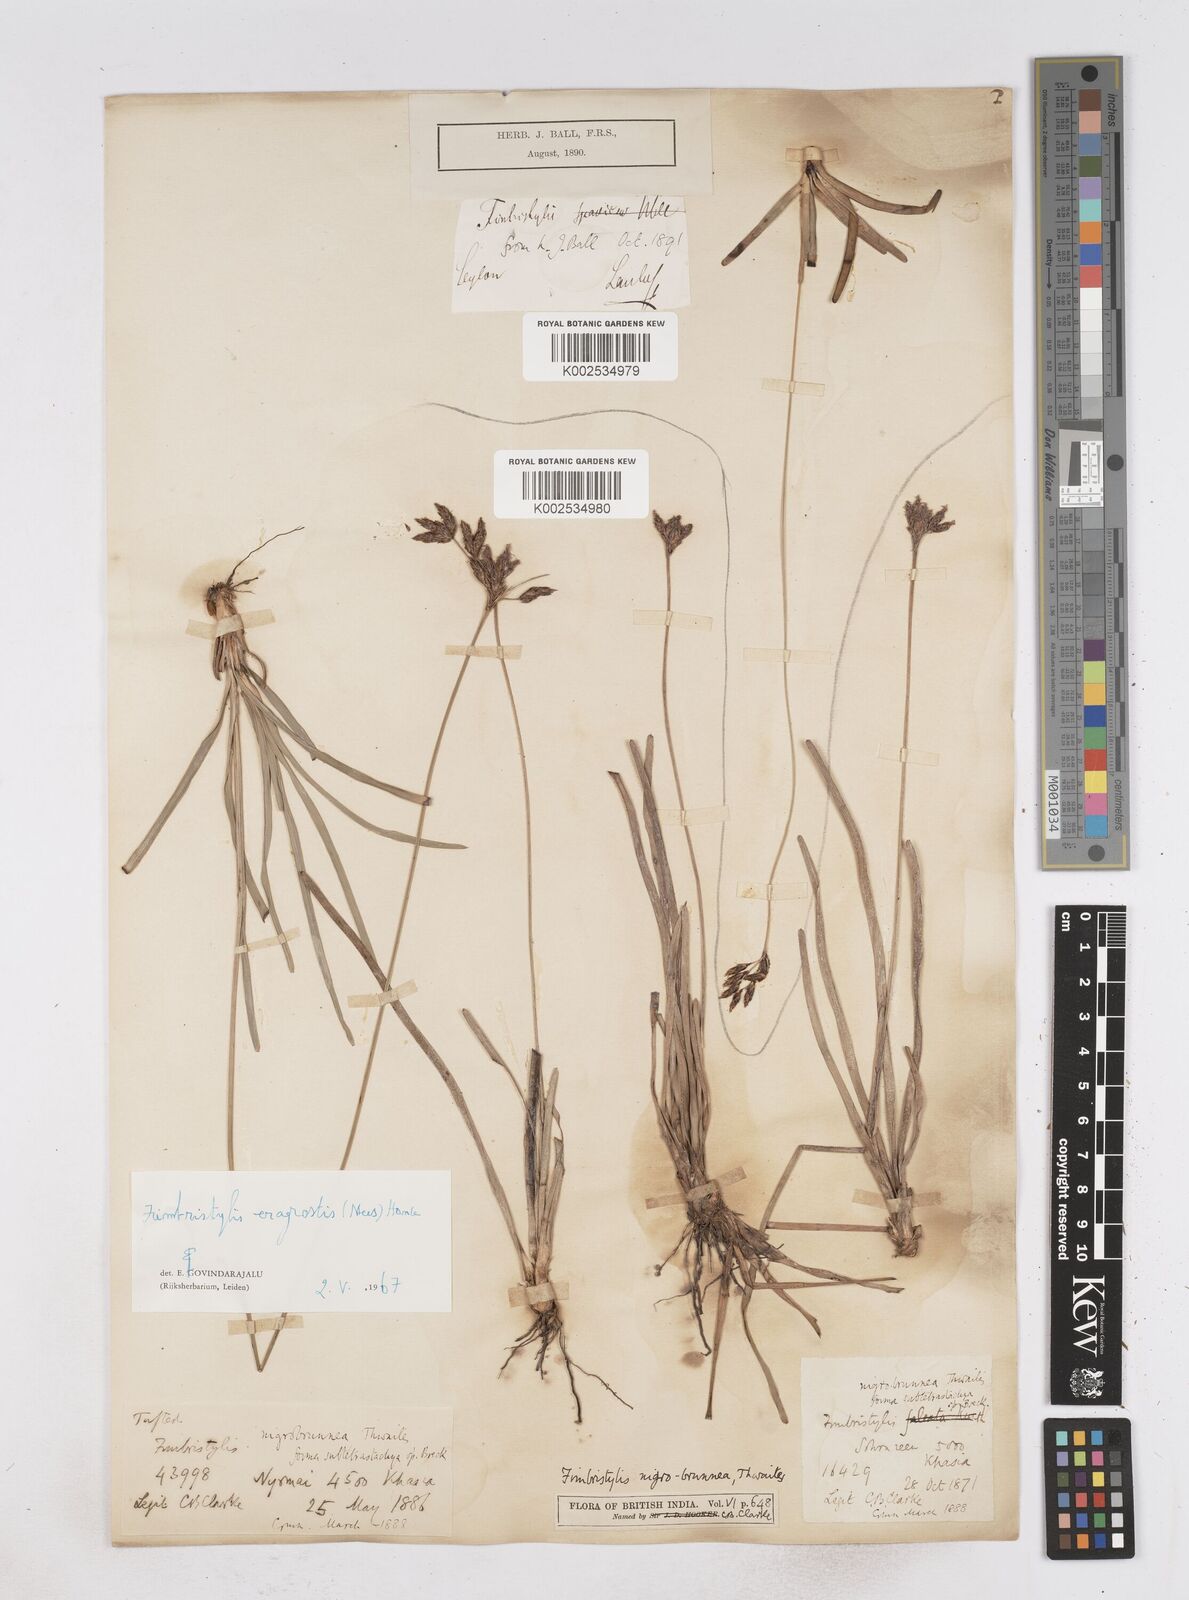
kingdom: Plantae
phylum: Tracheophyta
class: Liliopsida
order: Poales
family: Cyperaceae
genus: Fimbristylis
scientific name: Fimbristylis nigrobrunnea
